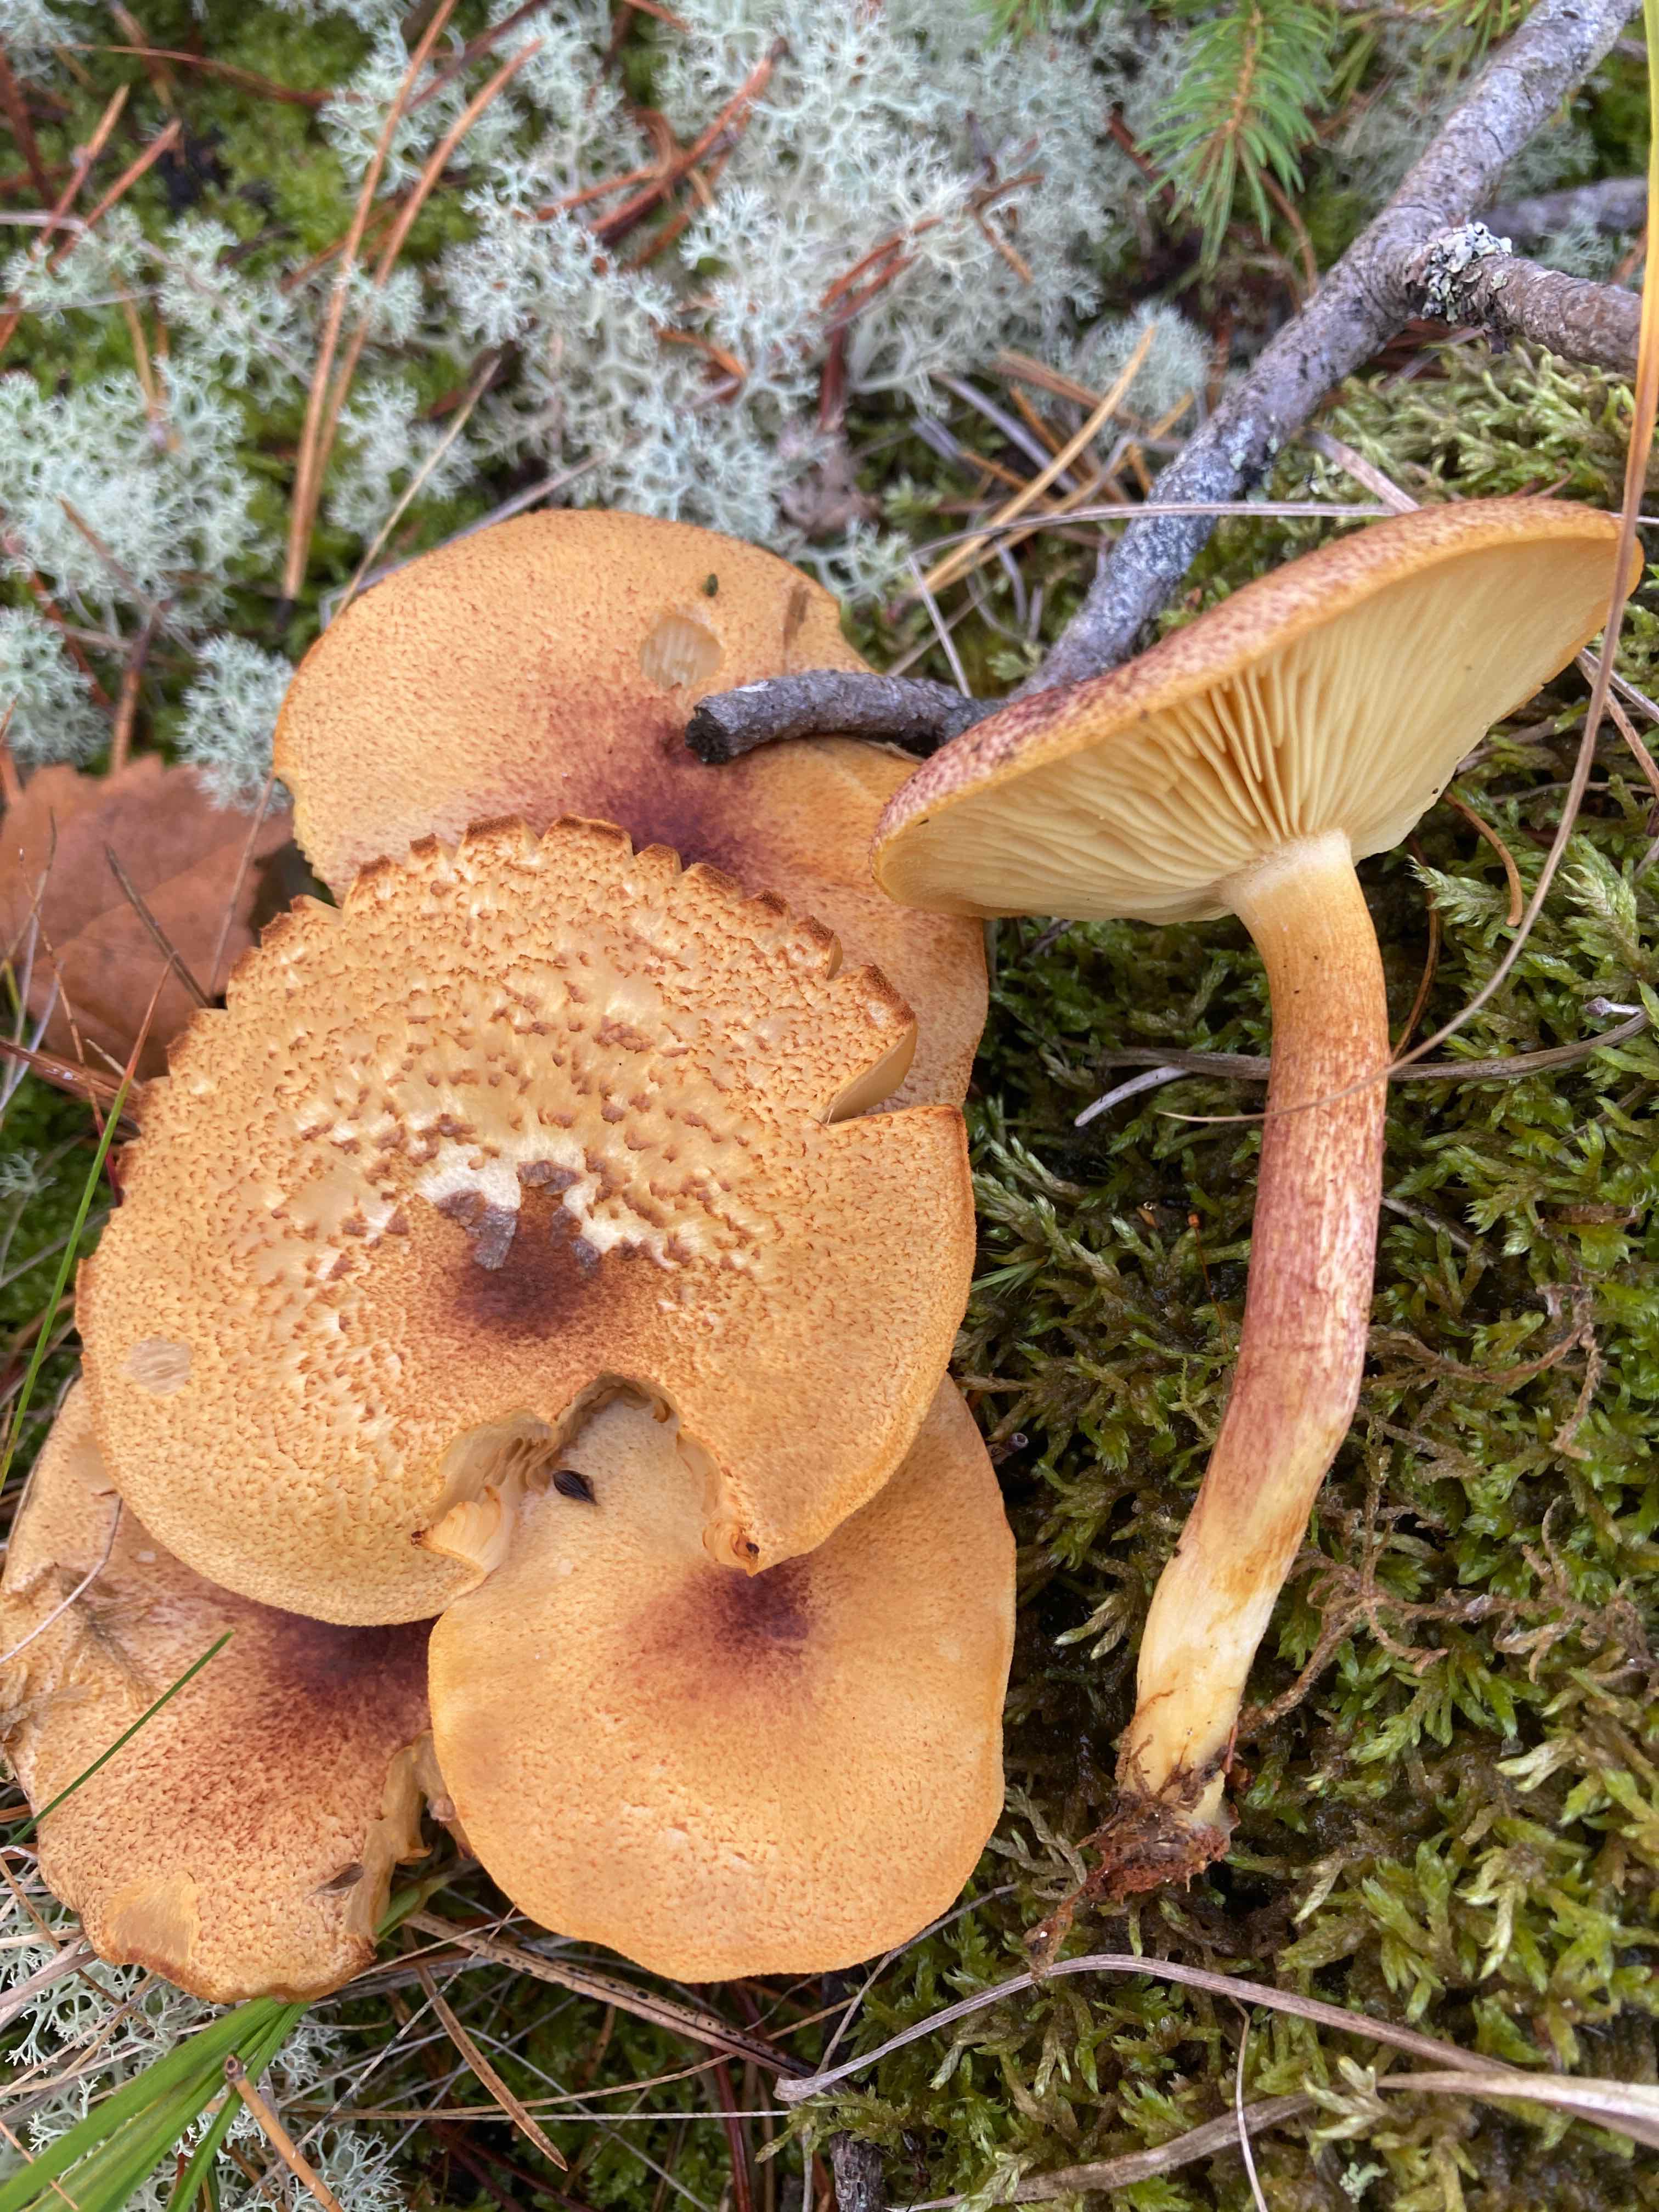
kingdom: Fungi
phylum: Basidiomycota
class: Agaricomycetes
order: Agaricales
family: Tricholomataceae
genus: Tricholomopsis
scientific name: Tricholomopsis rutilans
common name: purpur-væbnerhat
